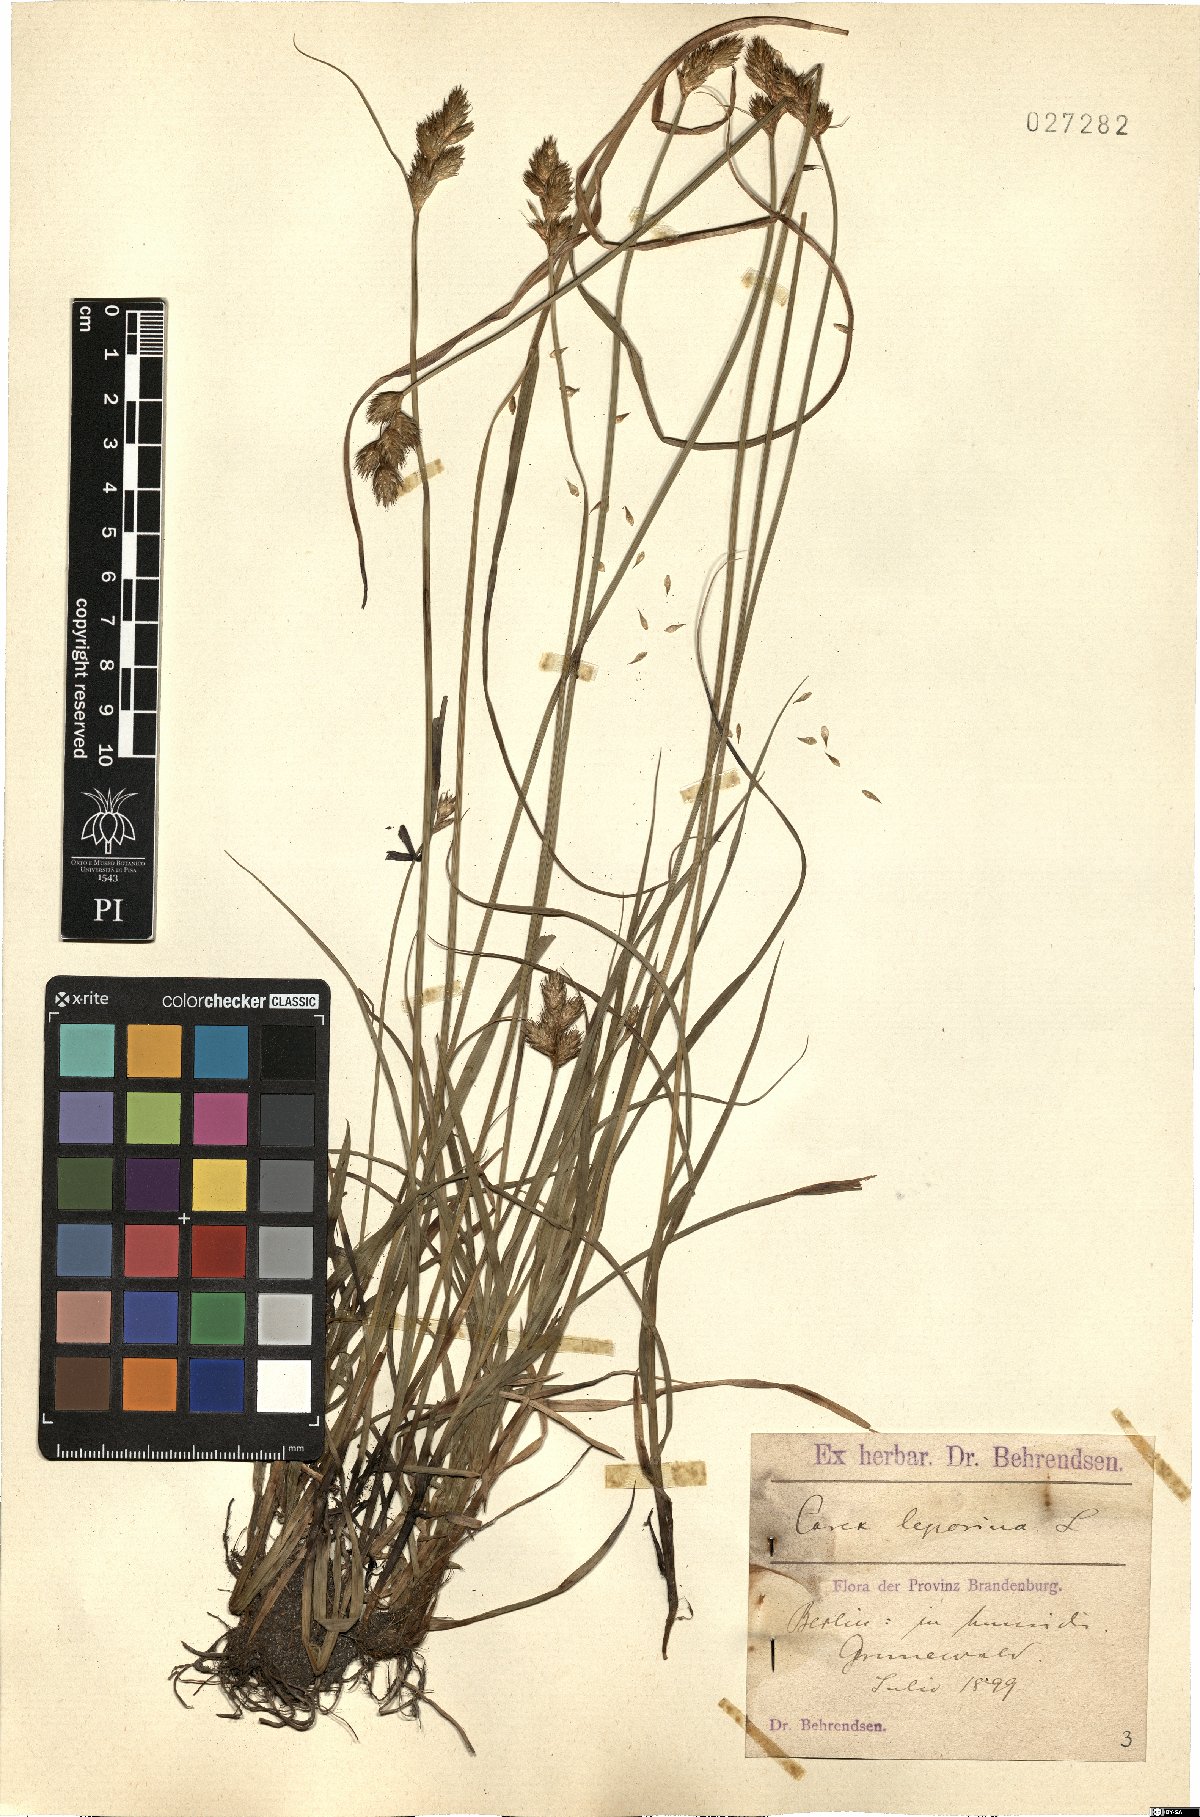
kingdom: Plantae
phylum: Tracheophyta
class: Liliopsida
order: Poales
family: Cyperaceae
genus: Carex
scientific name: Carex leporina
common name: Oval sedge
